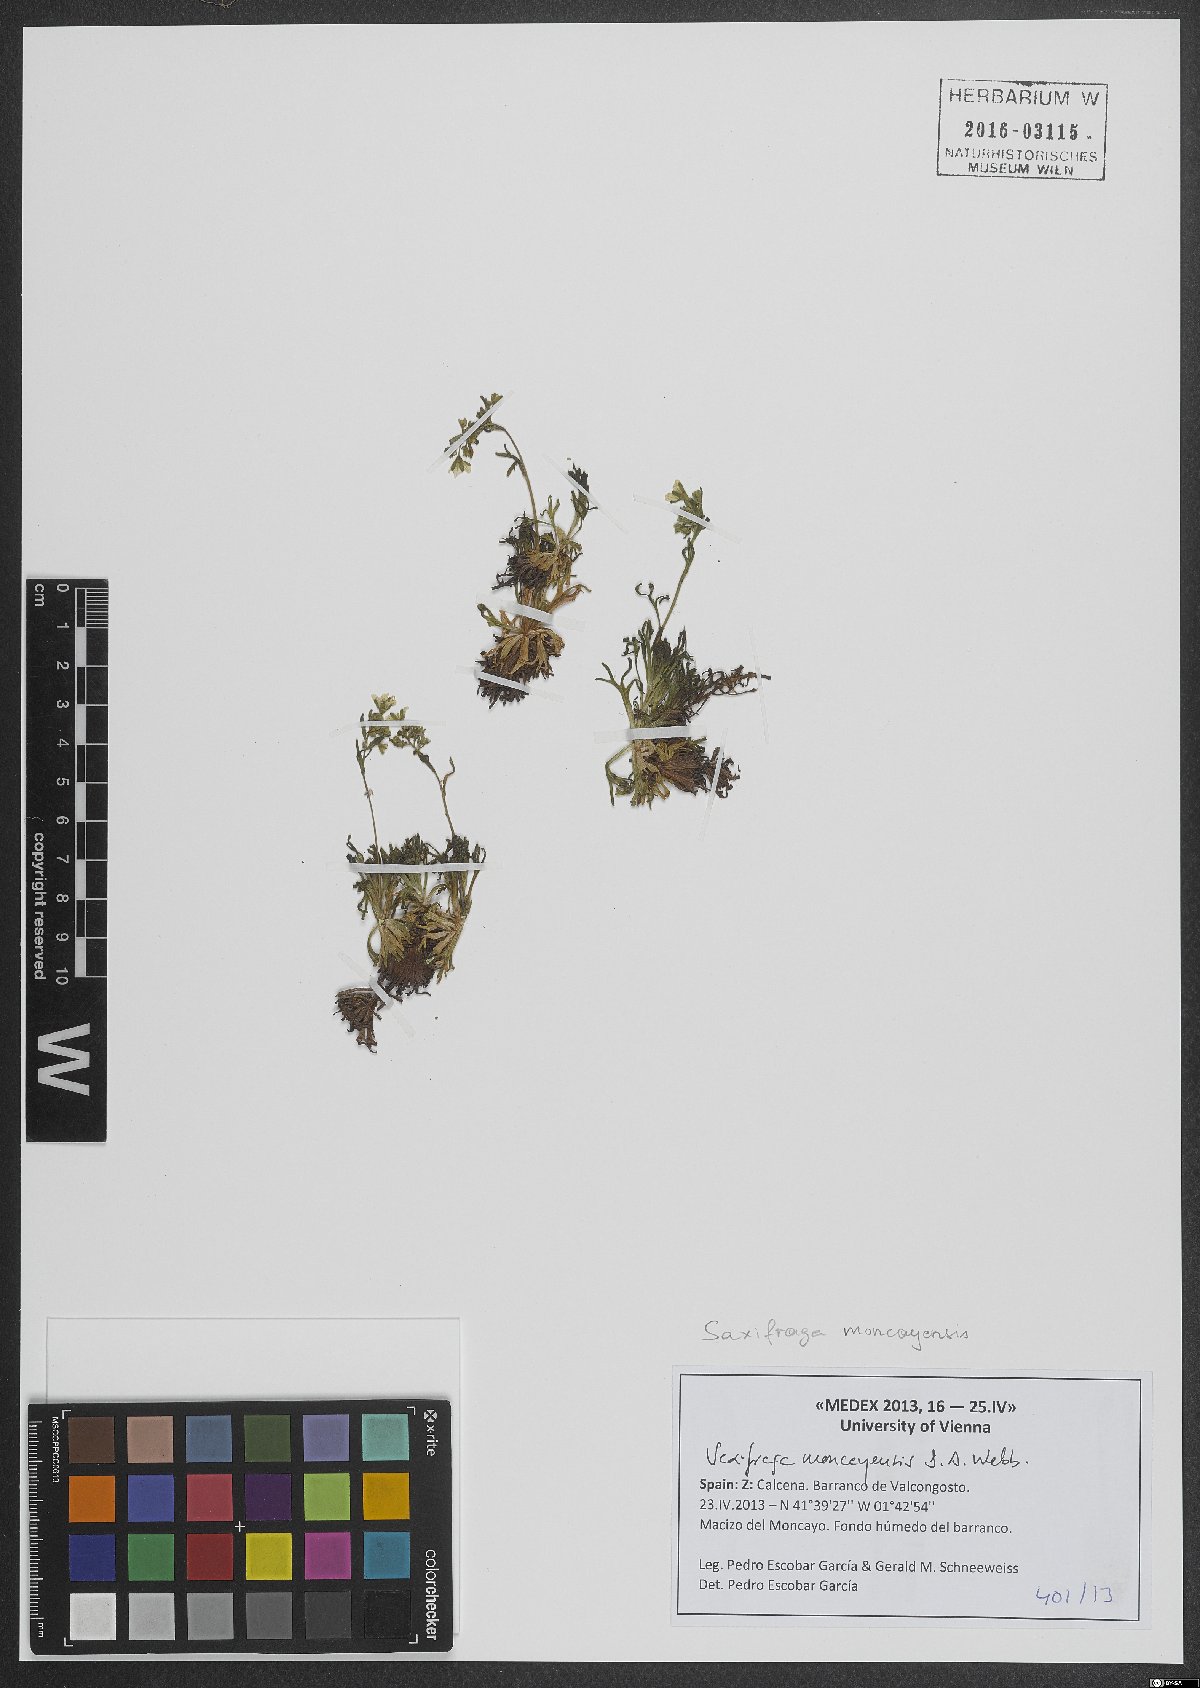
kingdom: Plantae
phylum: Tracheophyta
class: Magnoliopsida
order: Saxifragales
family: Saxifragaceae
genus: Saxifraga
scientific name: Saxifraga moncayensis
